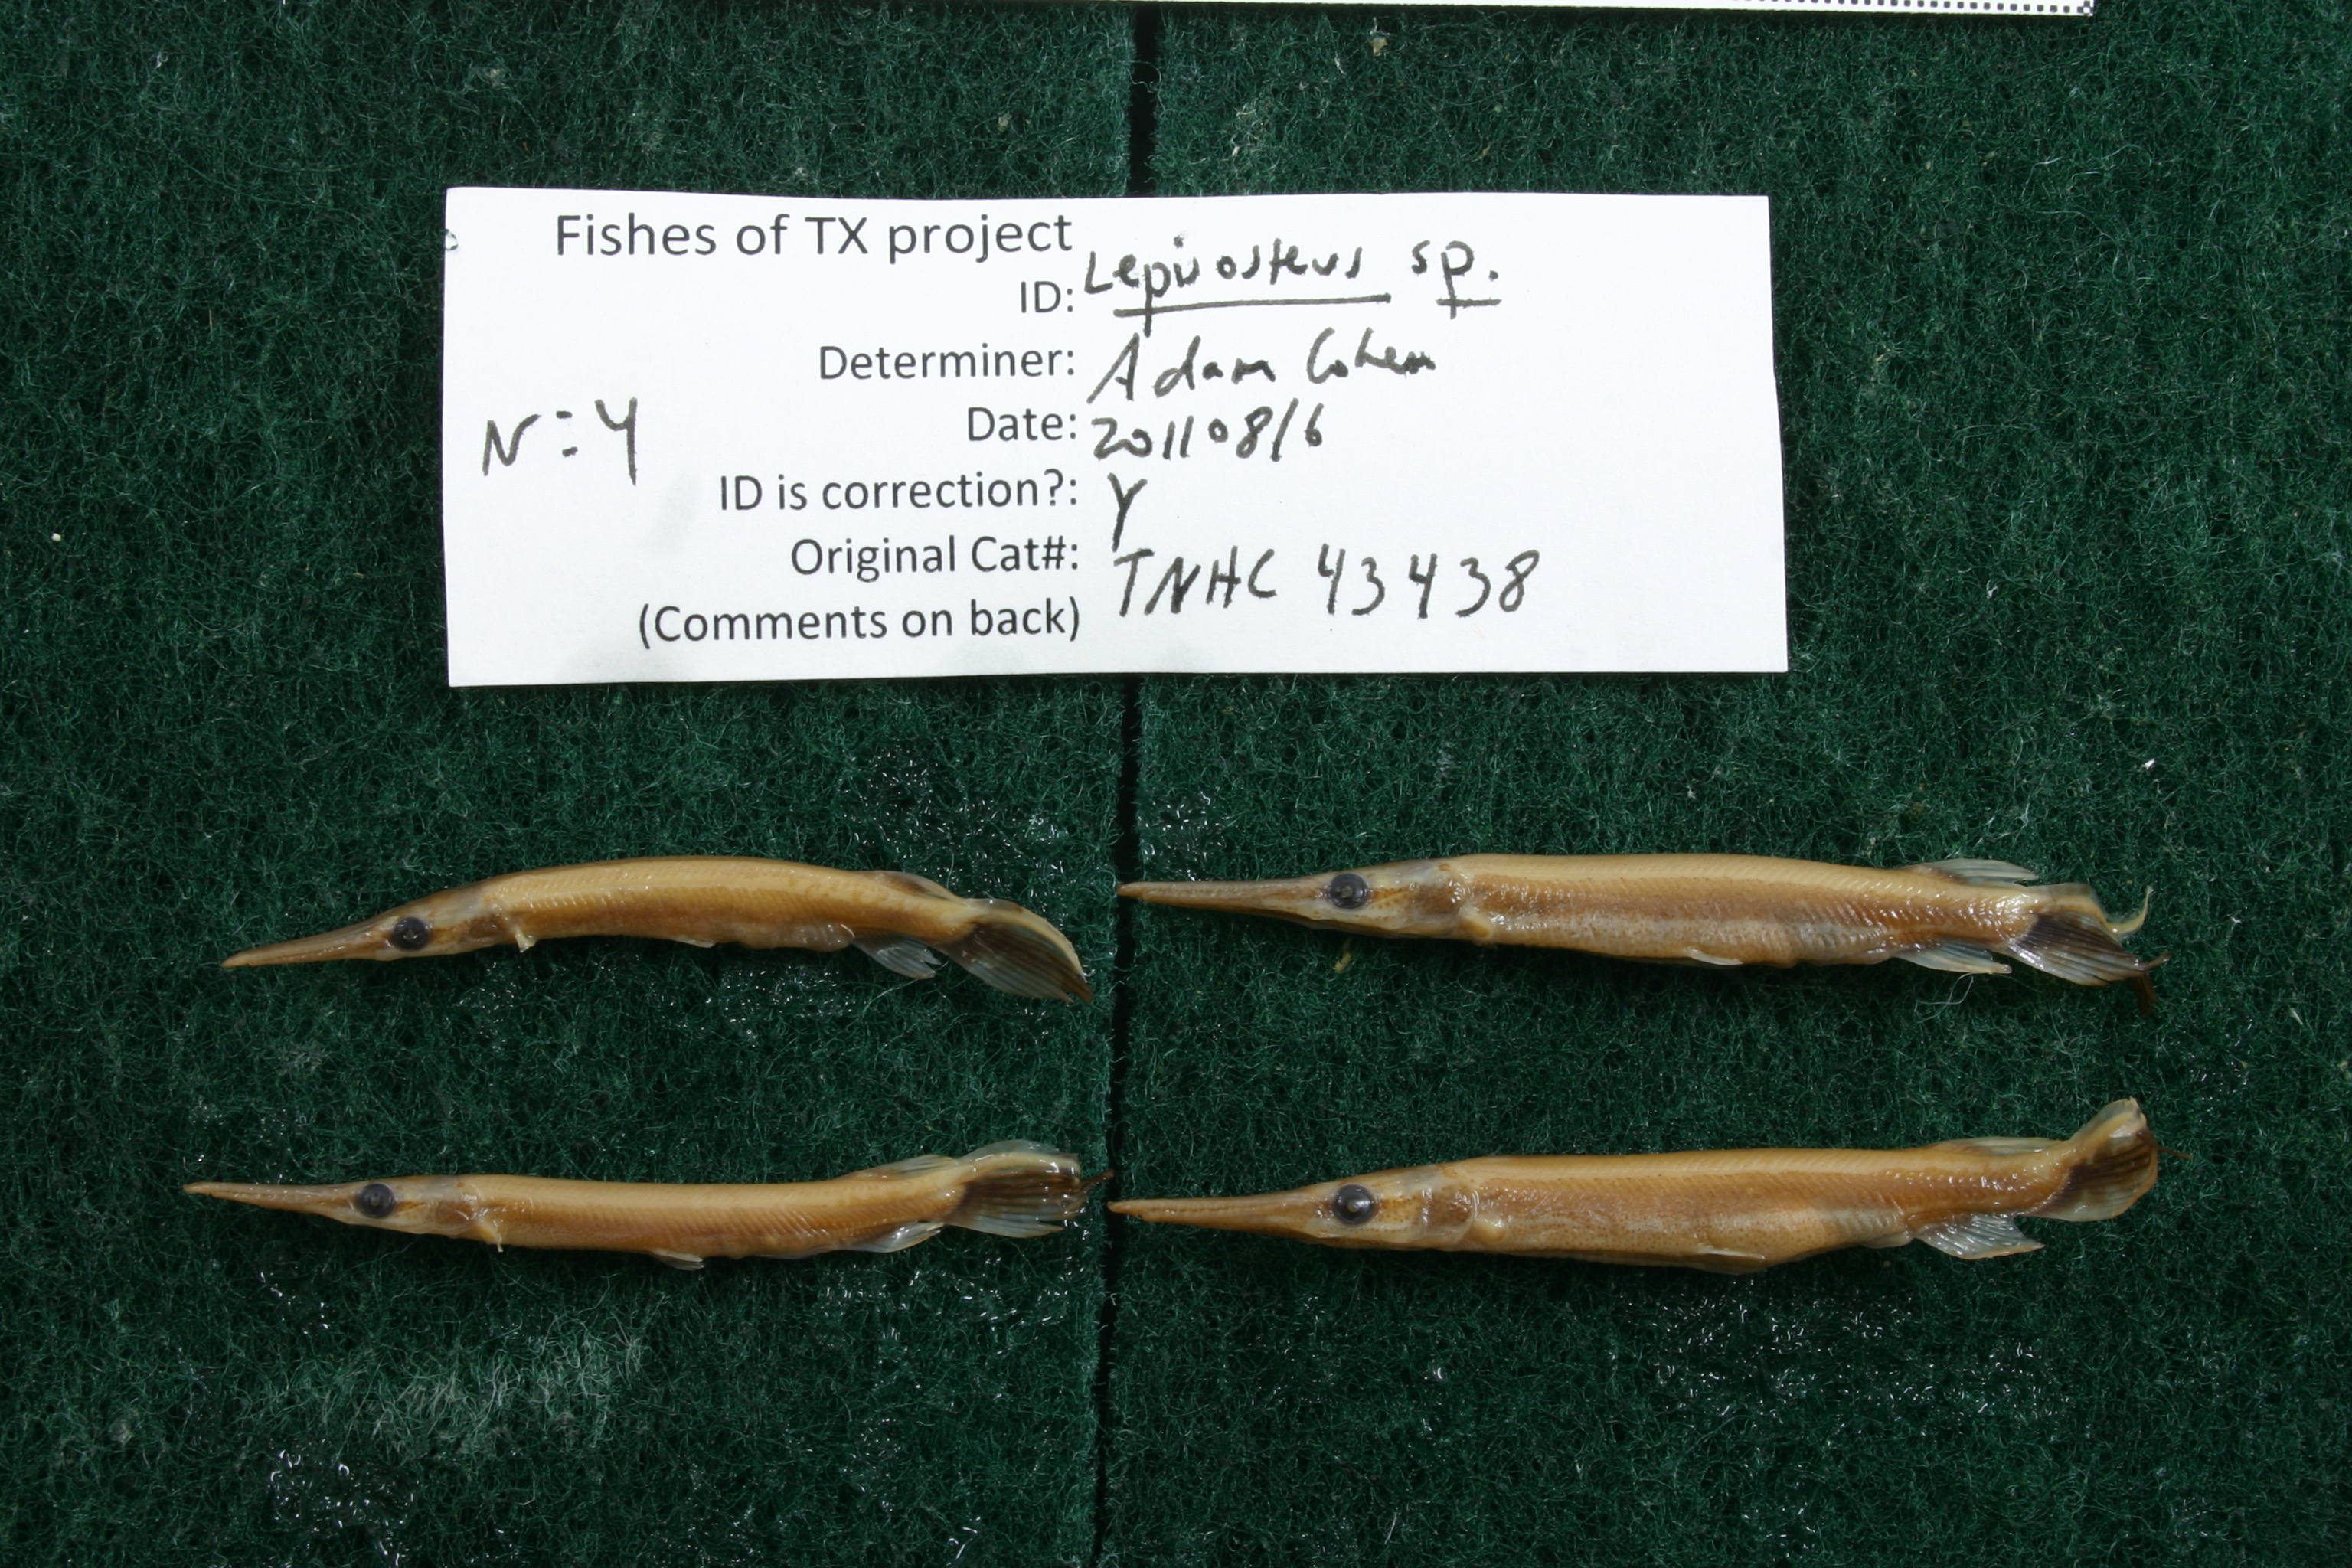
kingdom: Animalia
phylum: Chordata
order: Lepisosteiformes
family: Lepisosteidae
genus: Lepisosteus
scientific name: Lepisosteus oculatus
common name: Spotted gar
